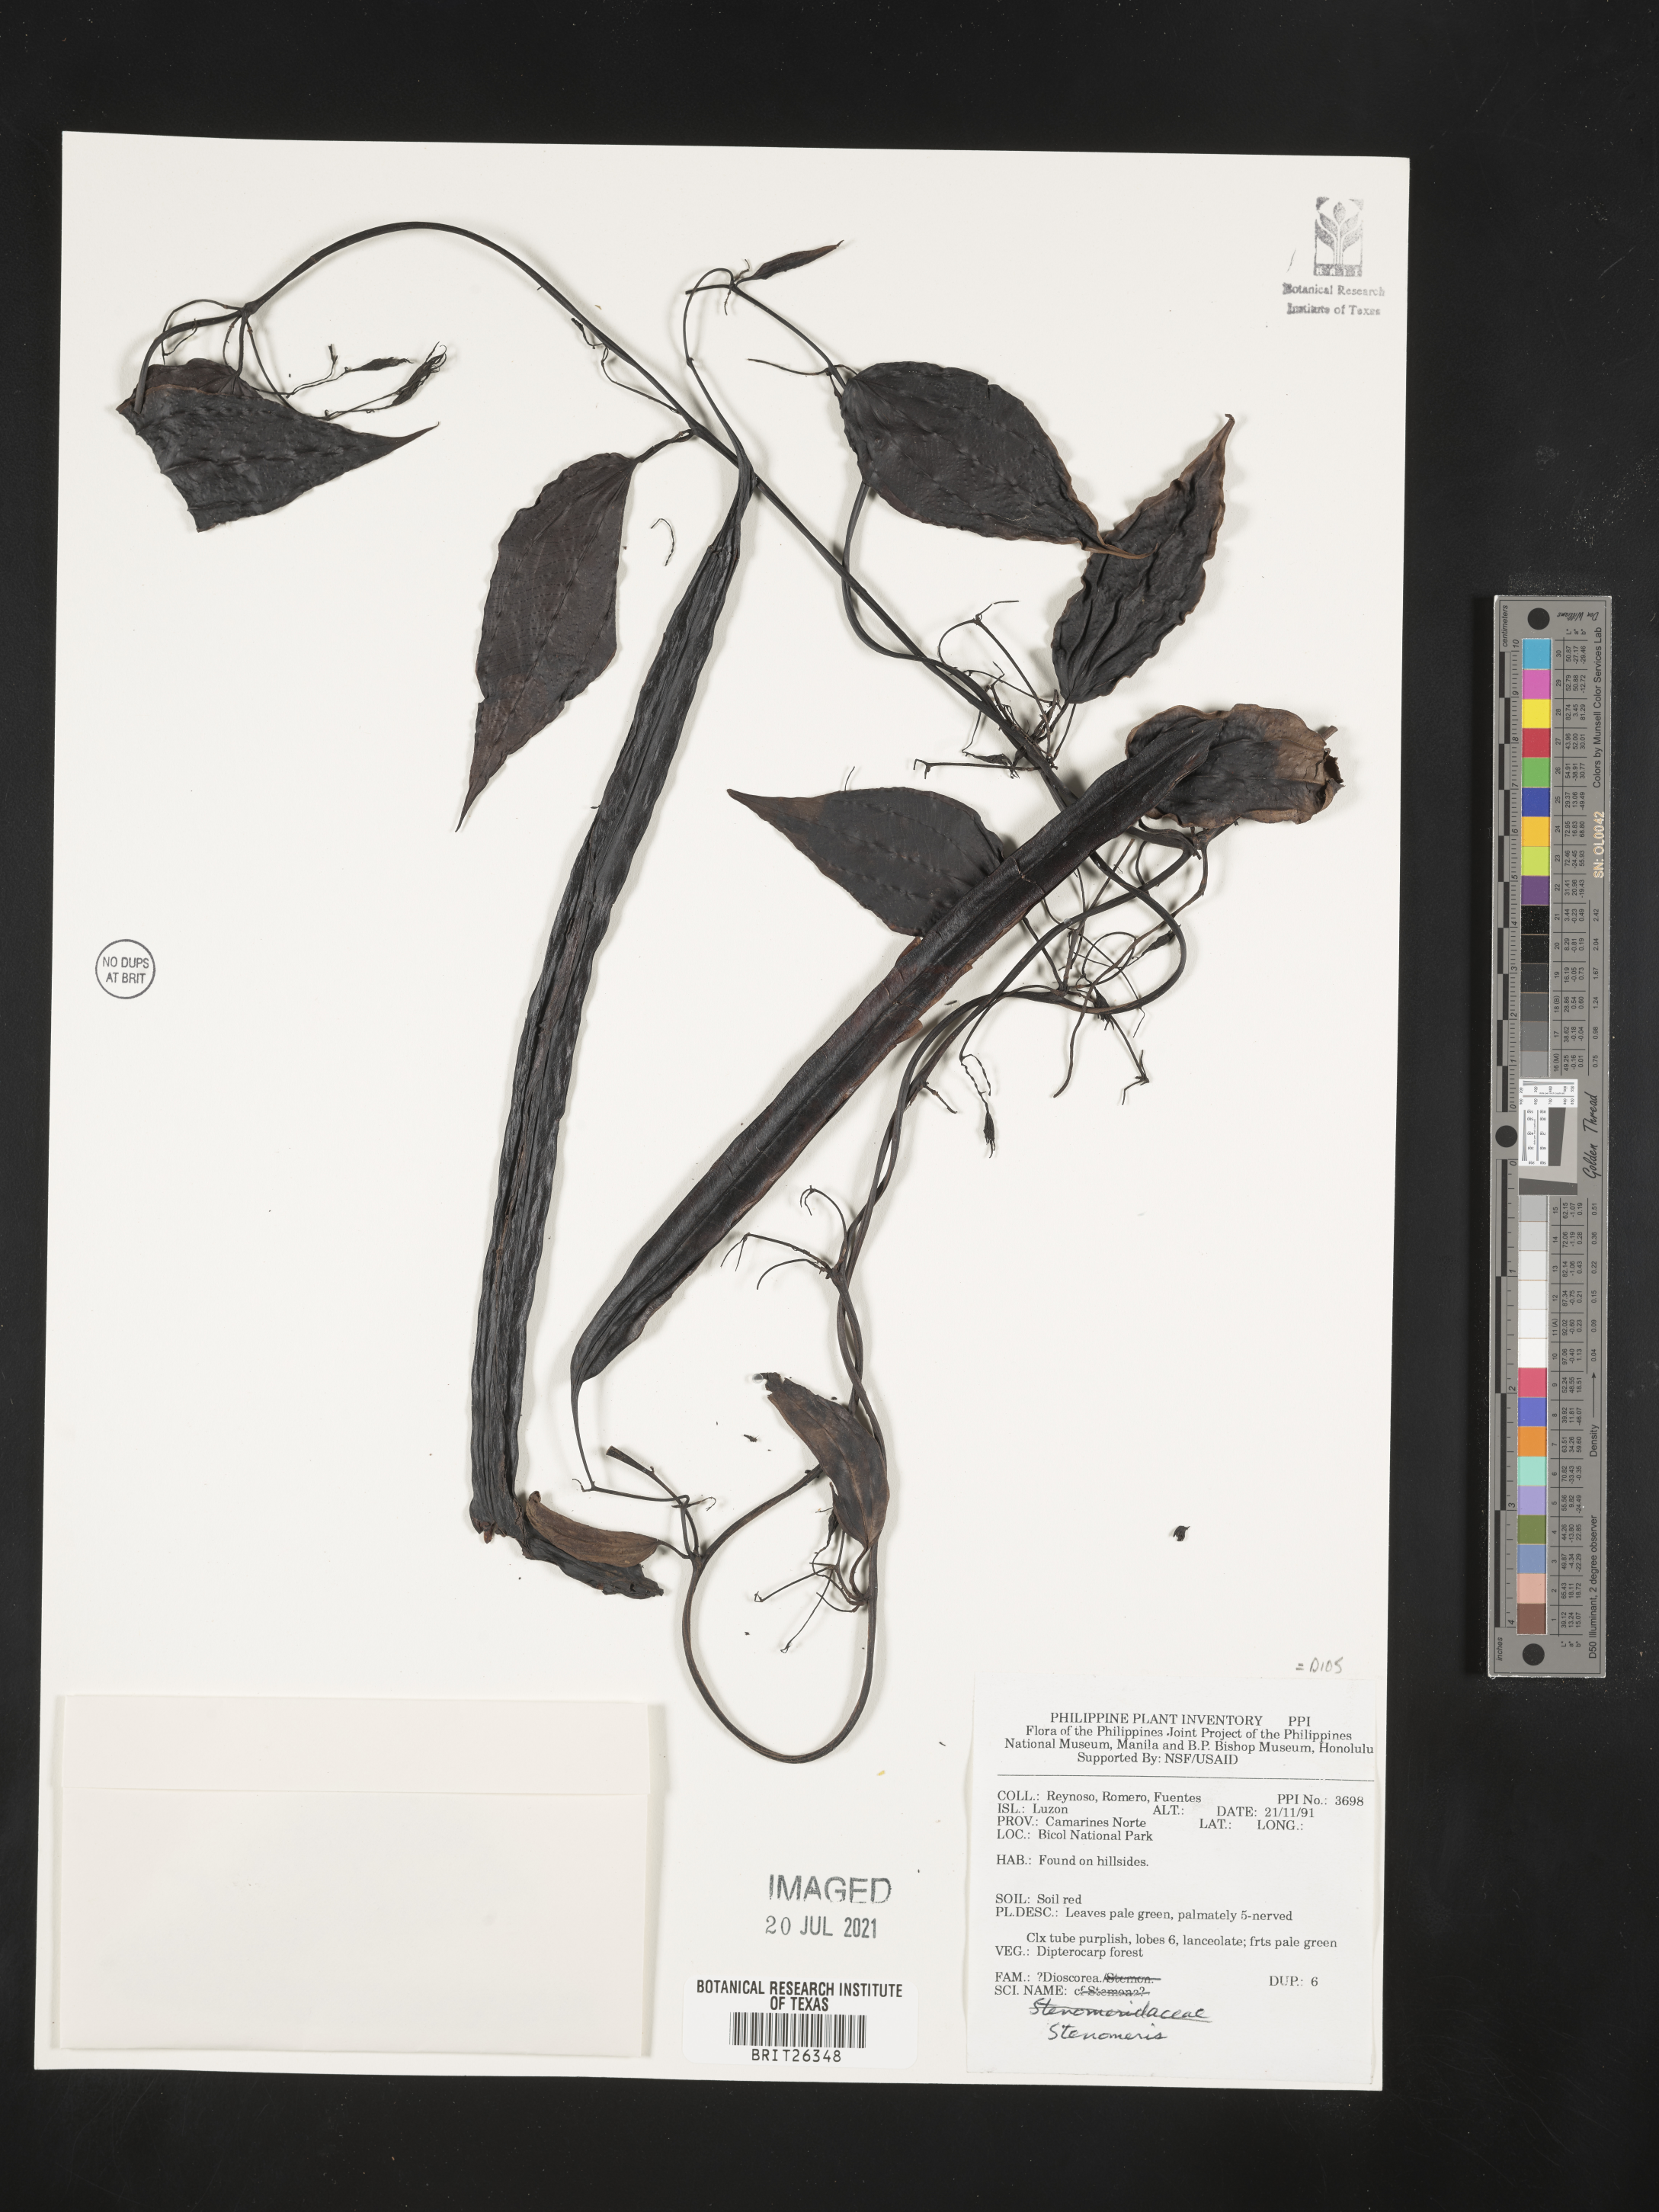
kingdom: Plantae
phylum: Tracheophyta
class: Liliopsida
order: Dioscoreales
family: Dioscoreaceae
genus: Stenomeris
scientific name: Stenomeris
